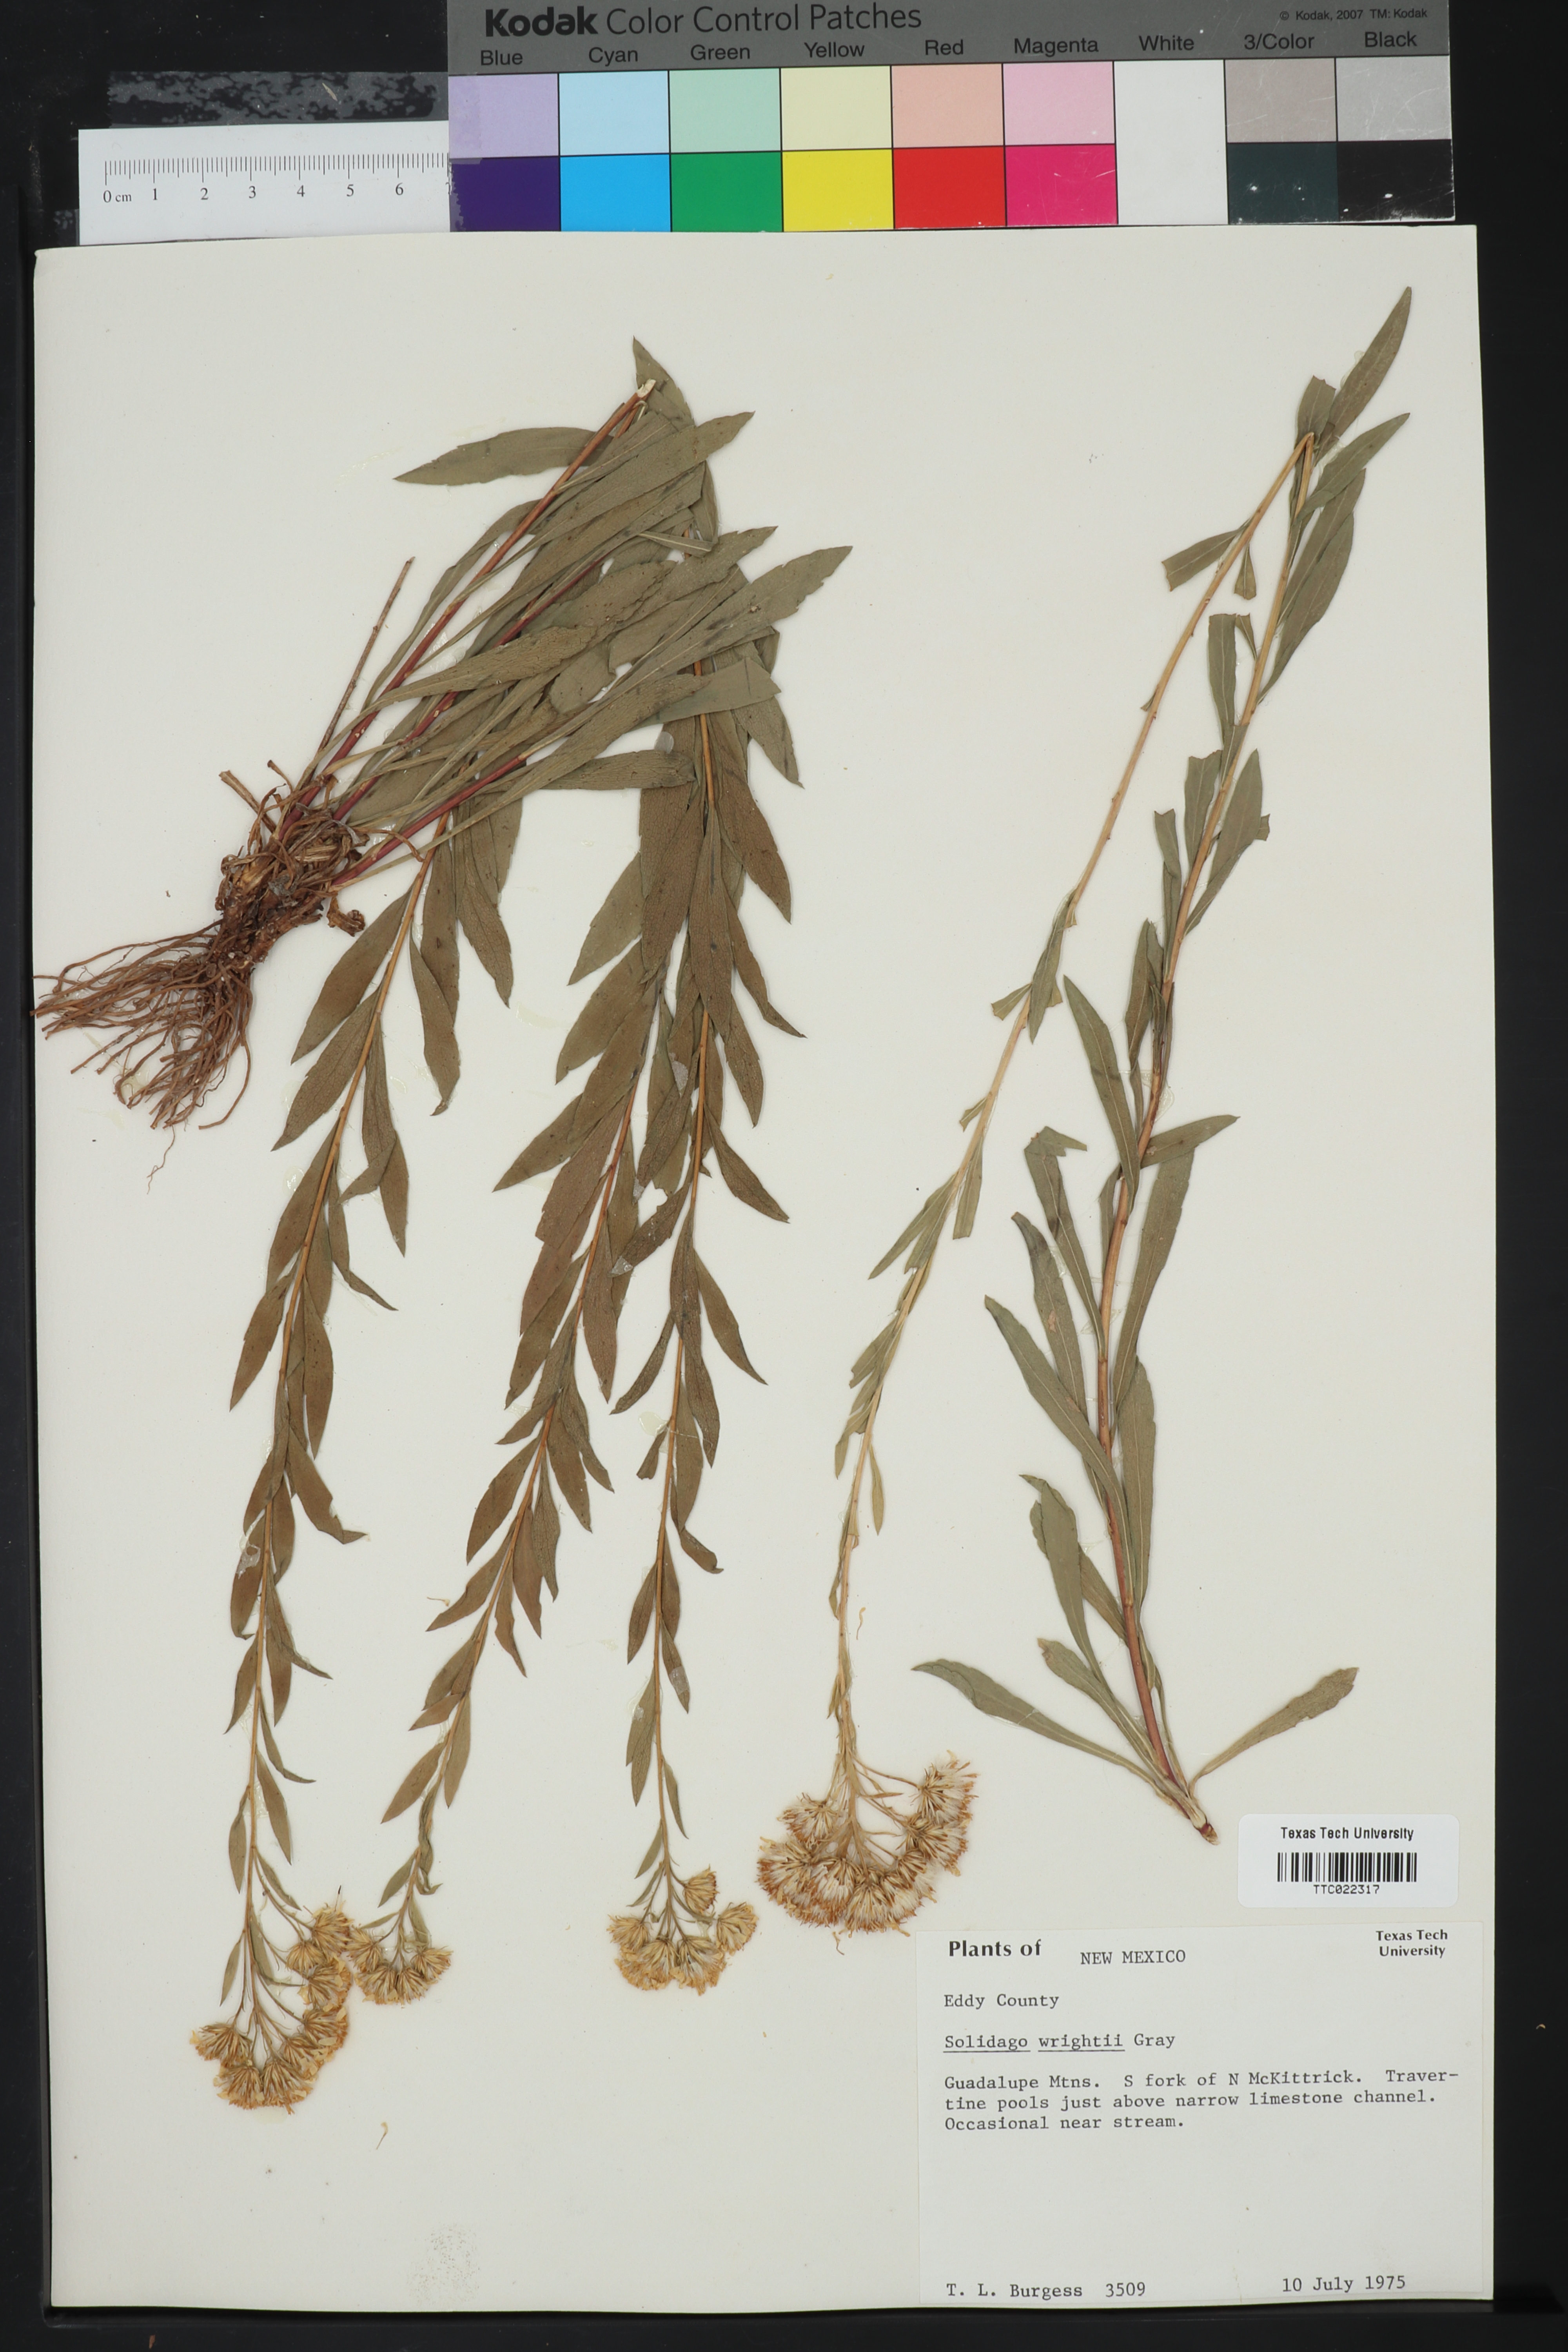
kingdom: Plantae
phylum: Tracheophyta
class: Magnoliopsida
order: Asterales
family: Asteraceae
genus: Solidago
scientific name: Solidago wrightii
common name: Wright's goldenrod
